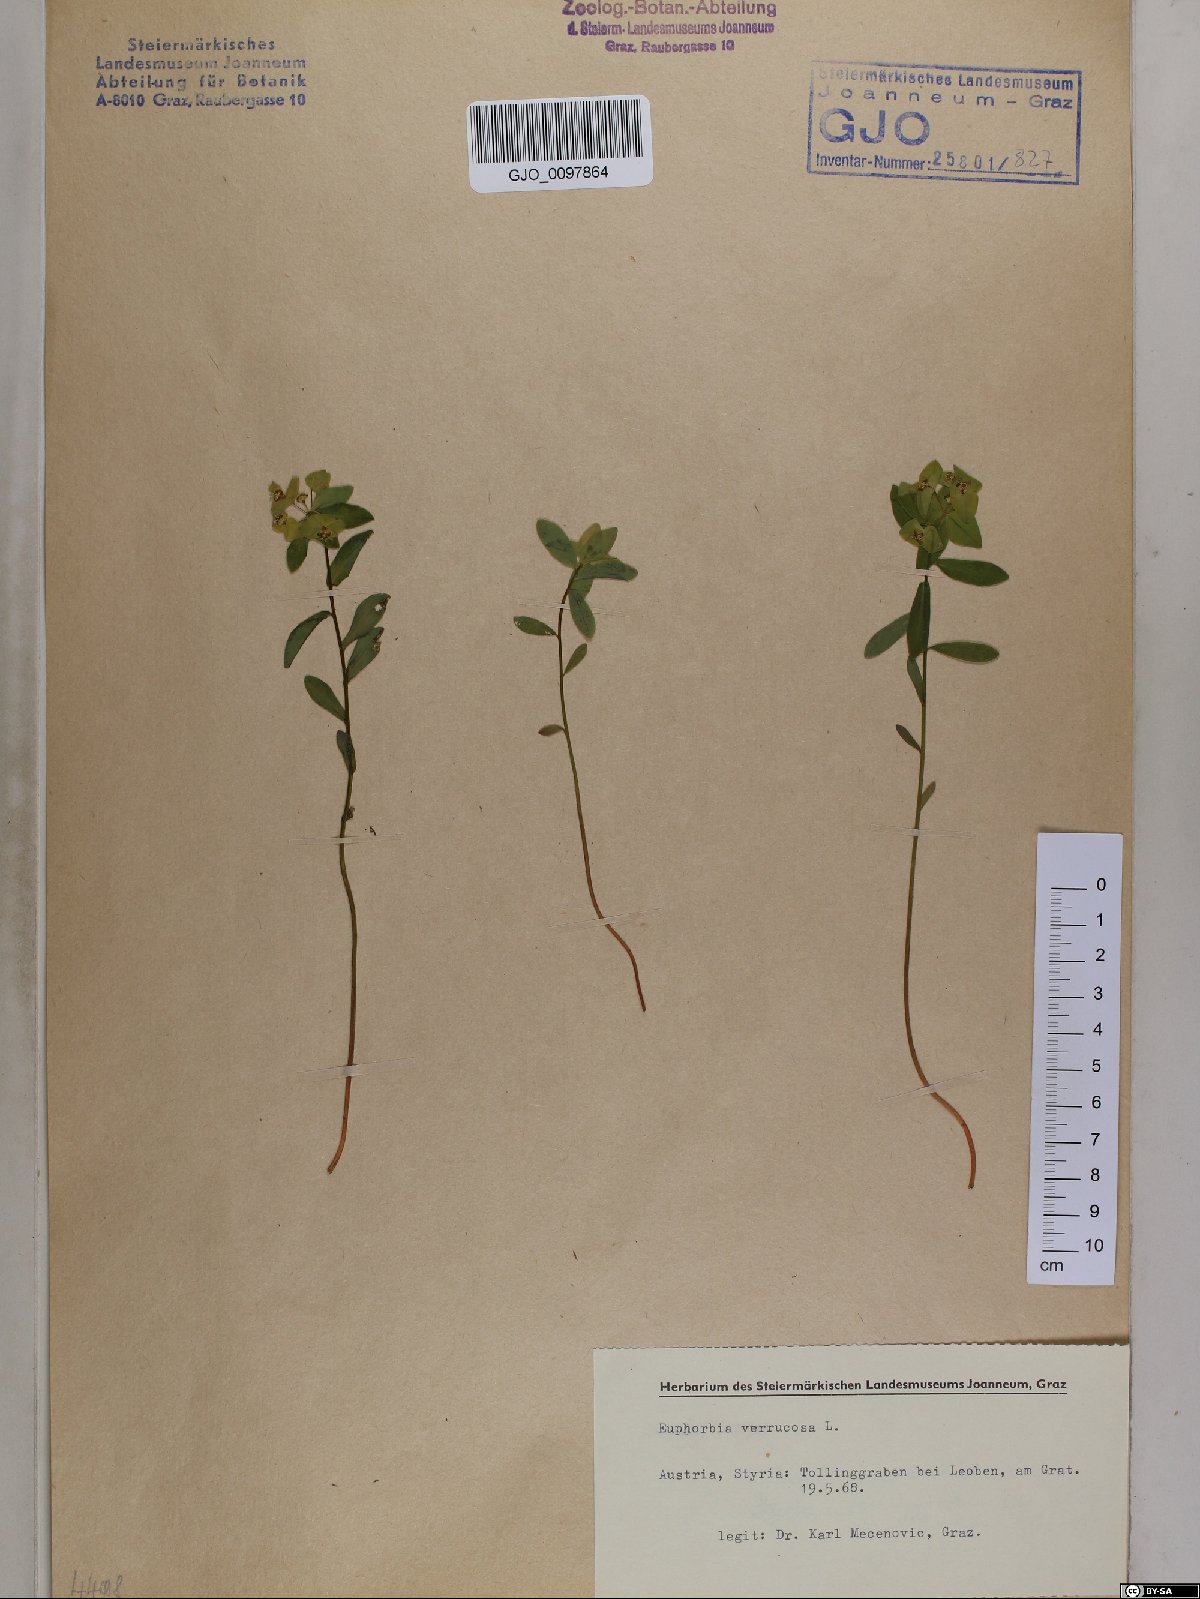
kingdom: Plantae
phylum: Tracheophyta
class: Magnoliopsida
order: Malpighiales
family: Euphorbiaceae
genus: Euphorbia
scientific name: Euphorbia verrucosa
